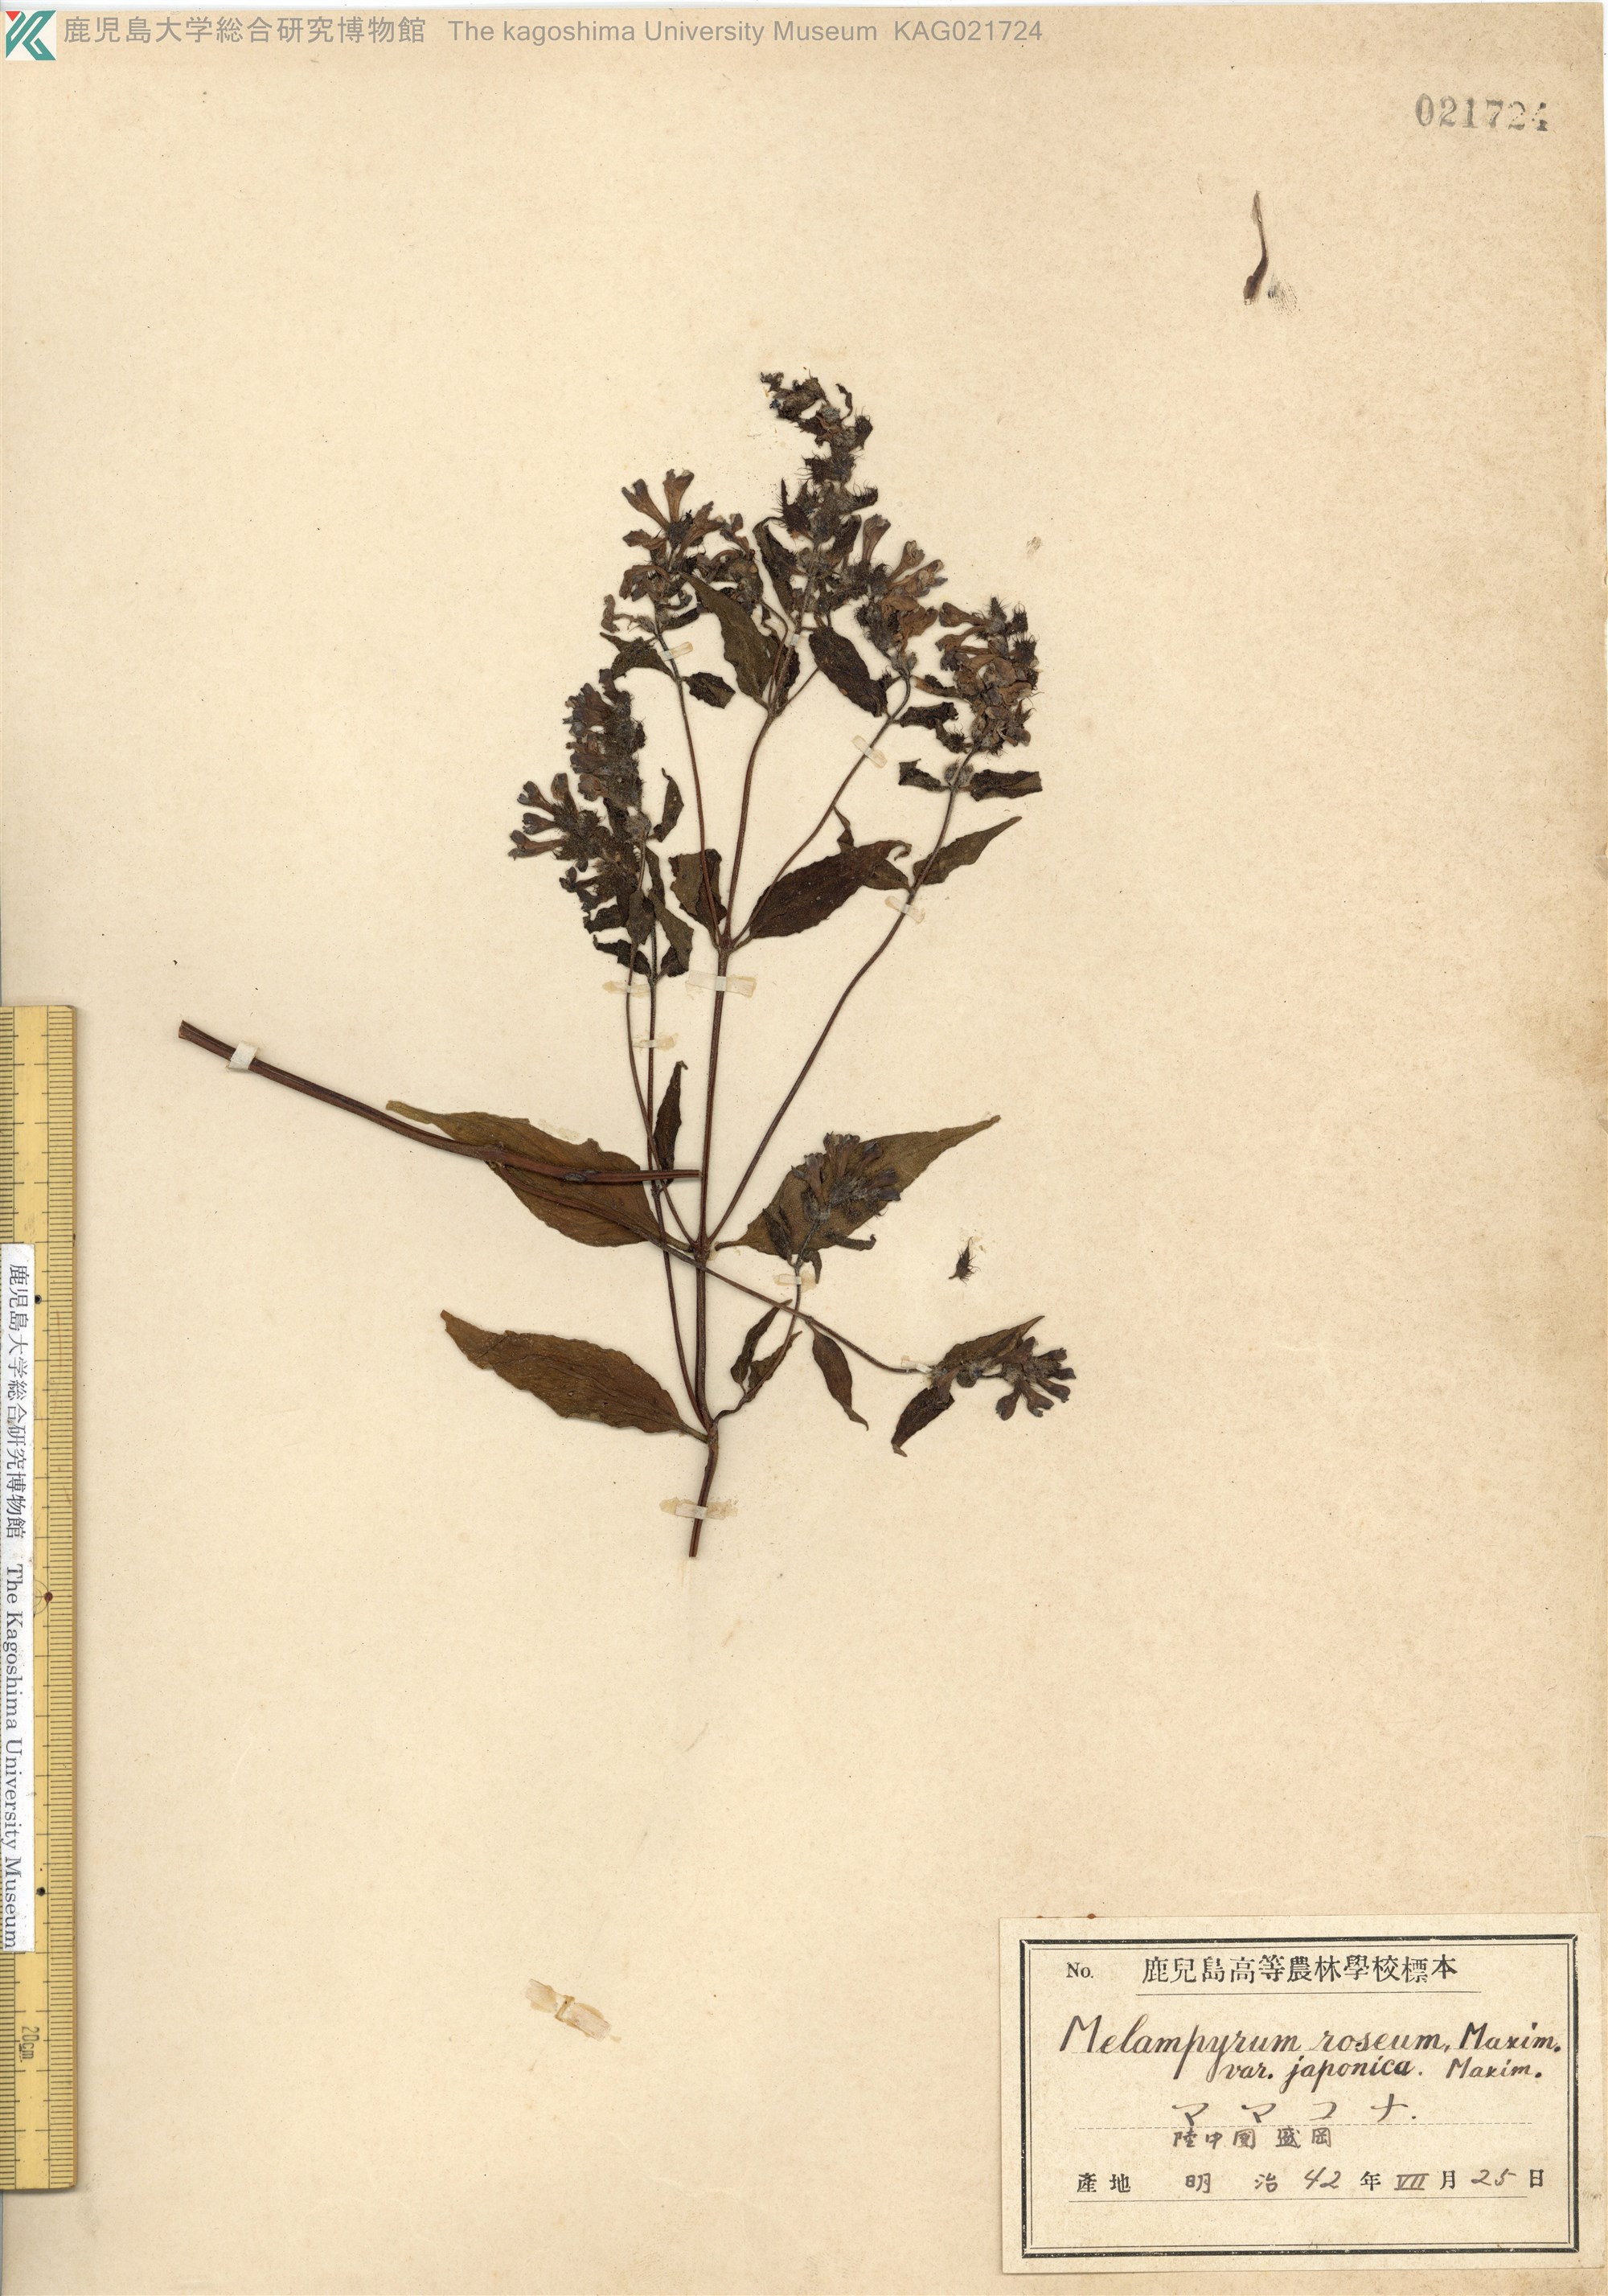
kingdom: Plantae
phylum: Tracheophyta
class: Magnoliopsida
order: Lamiales
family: Orobanchaceae
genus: Melampyrum
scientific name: Melampyrum roseum
